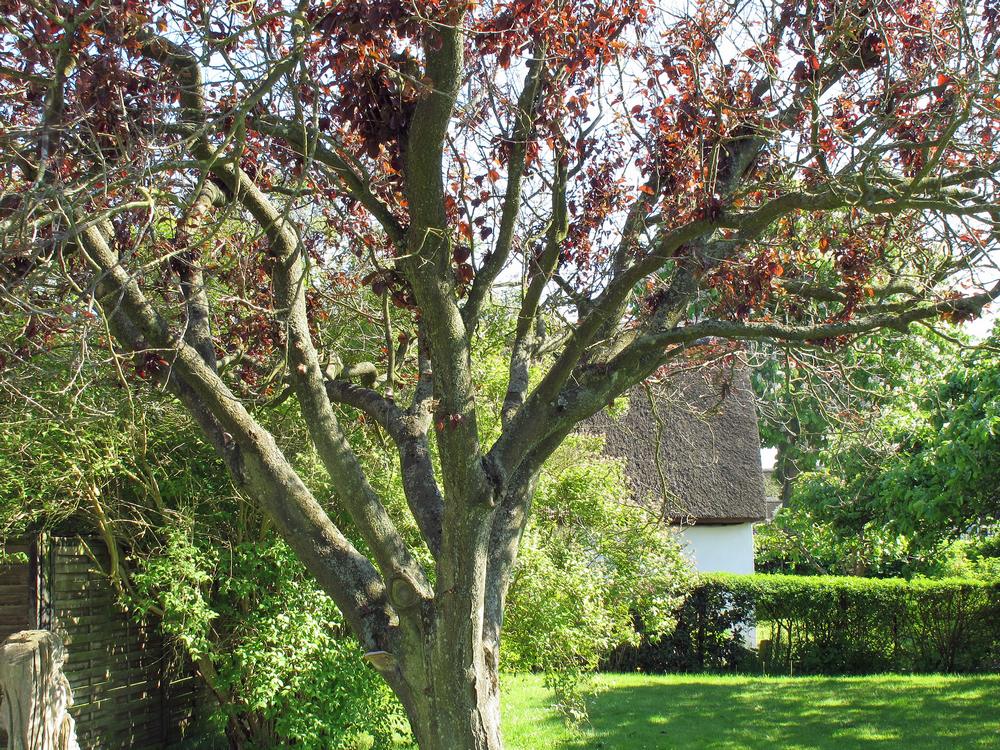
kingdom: Fungi
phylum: Basidiomycota
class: Agaricomycetes
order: Hymenochaetales
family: Hymenochaetaceae
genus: Phellinus
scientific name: Phellinus pomaceus
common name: blomme-ildporesvamp
